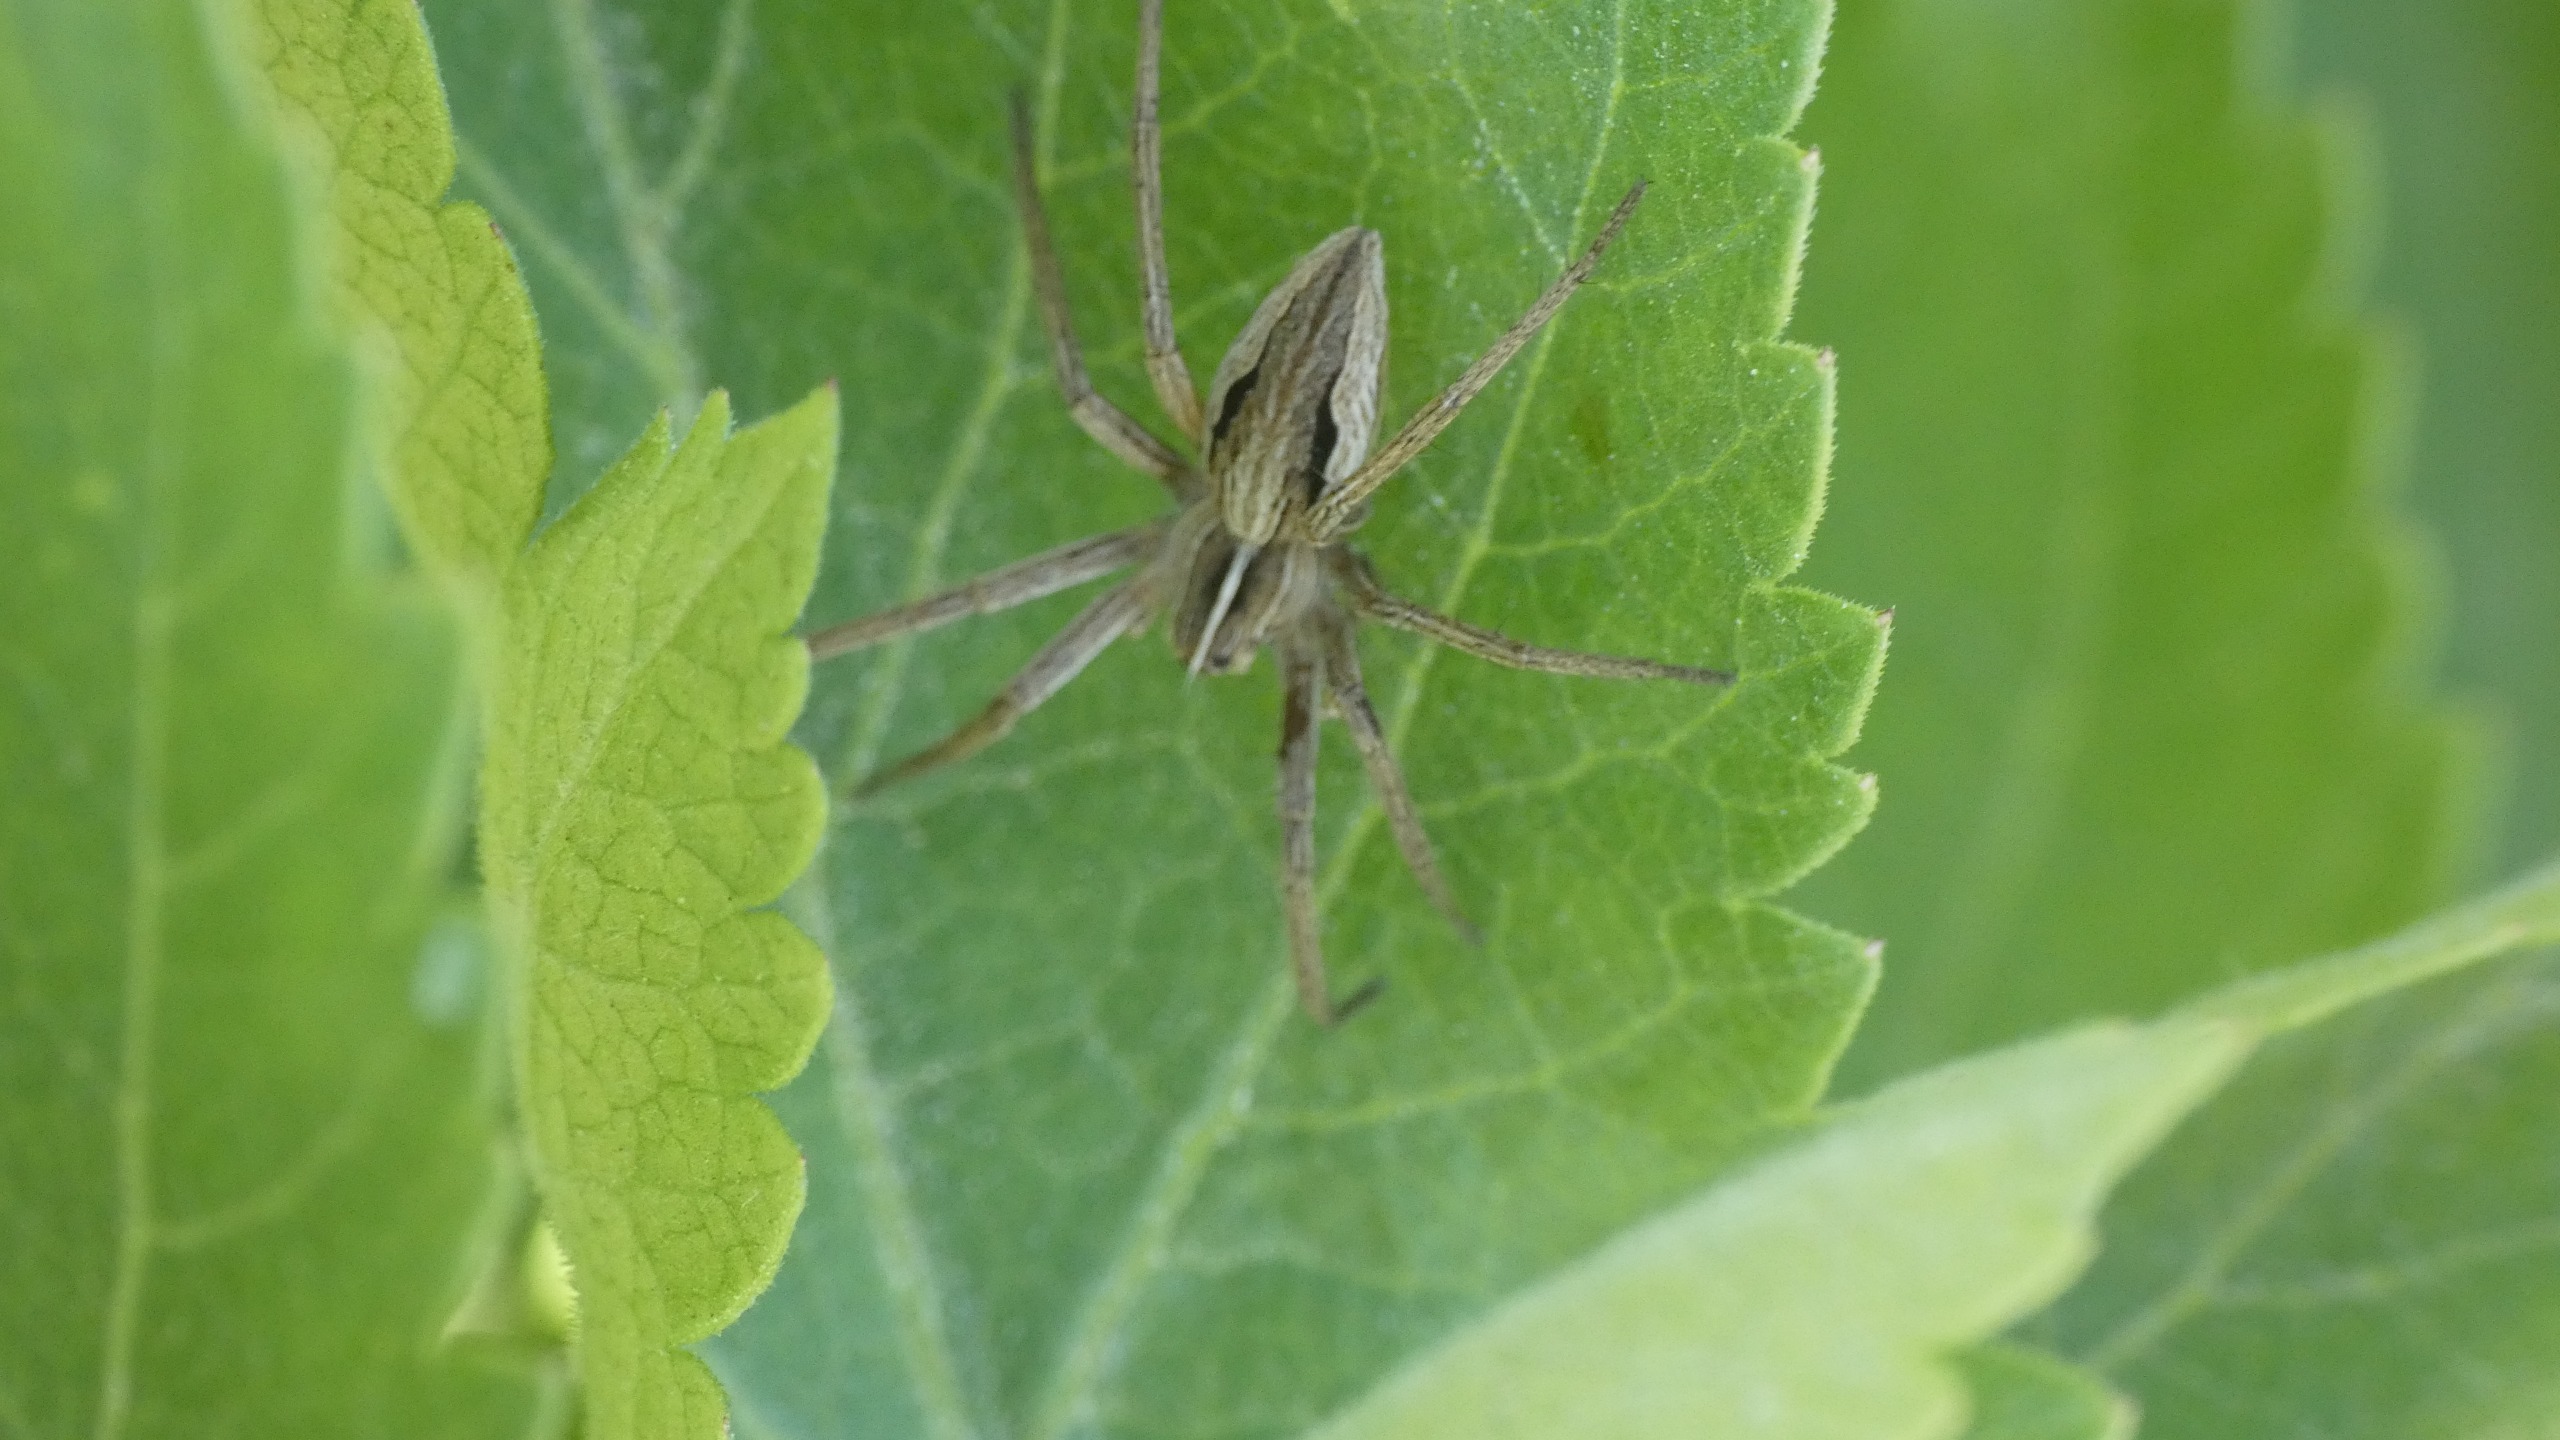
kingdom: Animalia
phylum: Arthropoda
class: Arachnida
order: Araneae
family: Pisauridae
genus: Pisaura
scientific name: Pisaura mirabilis
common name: Almindelig rovedderkop
